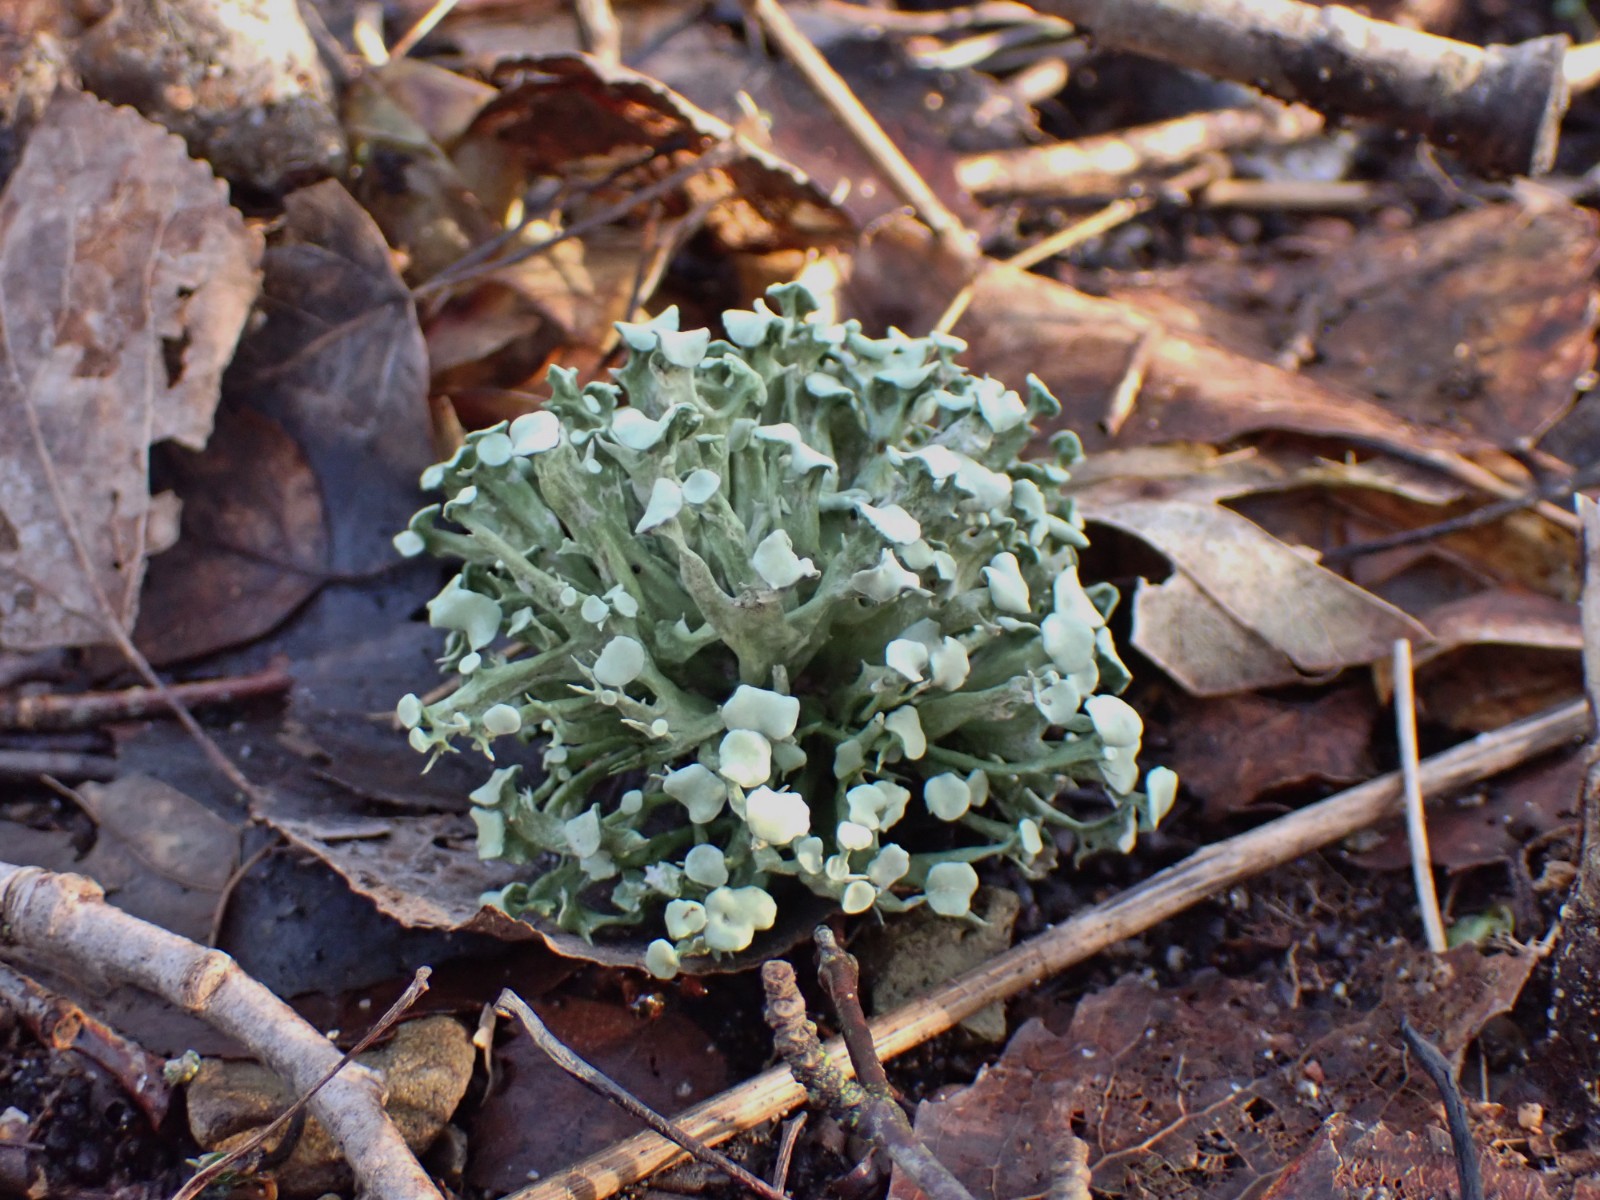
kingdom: Fungi
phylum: Ascomycota
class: Lecanoromycetes
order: Lecanorales
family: Ramalinaceae
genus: Ramalina
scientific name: Ramalina fastigiata
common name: tue-grenlav
